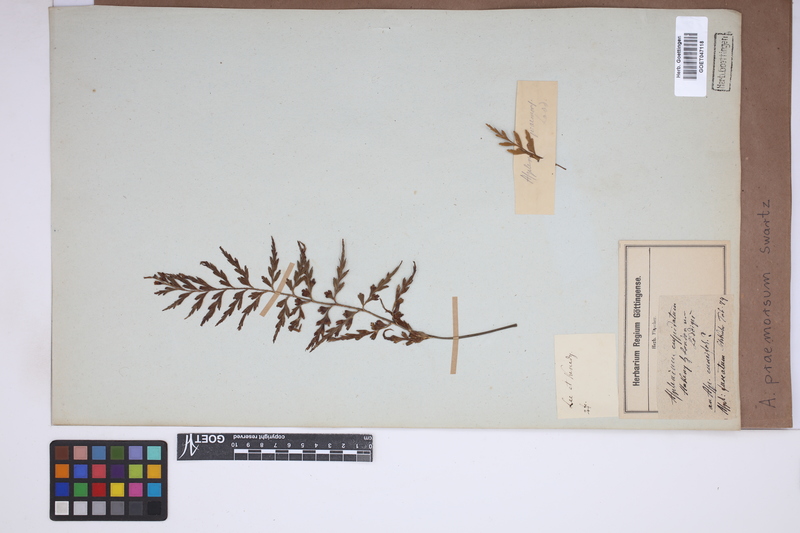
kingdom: Plantae
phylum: Tracheophyta
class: Polypodiopsida
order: Polypodiales
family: Aspleniaceae
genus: Asplenium
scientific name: Asplenium praemorsum
